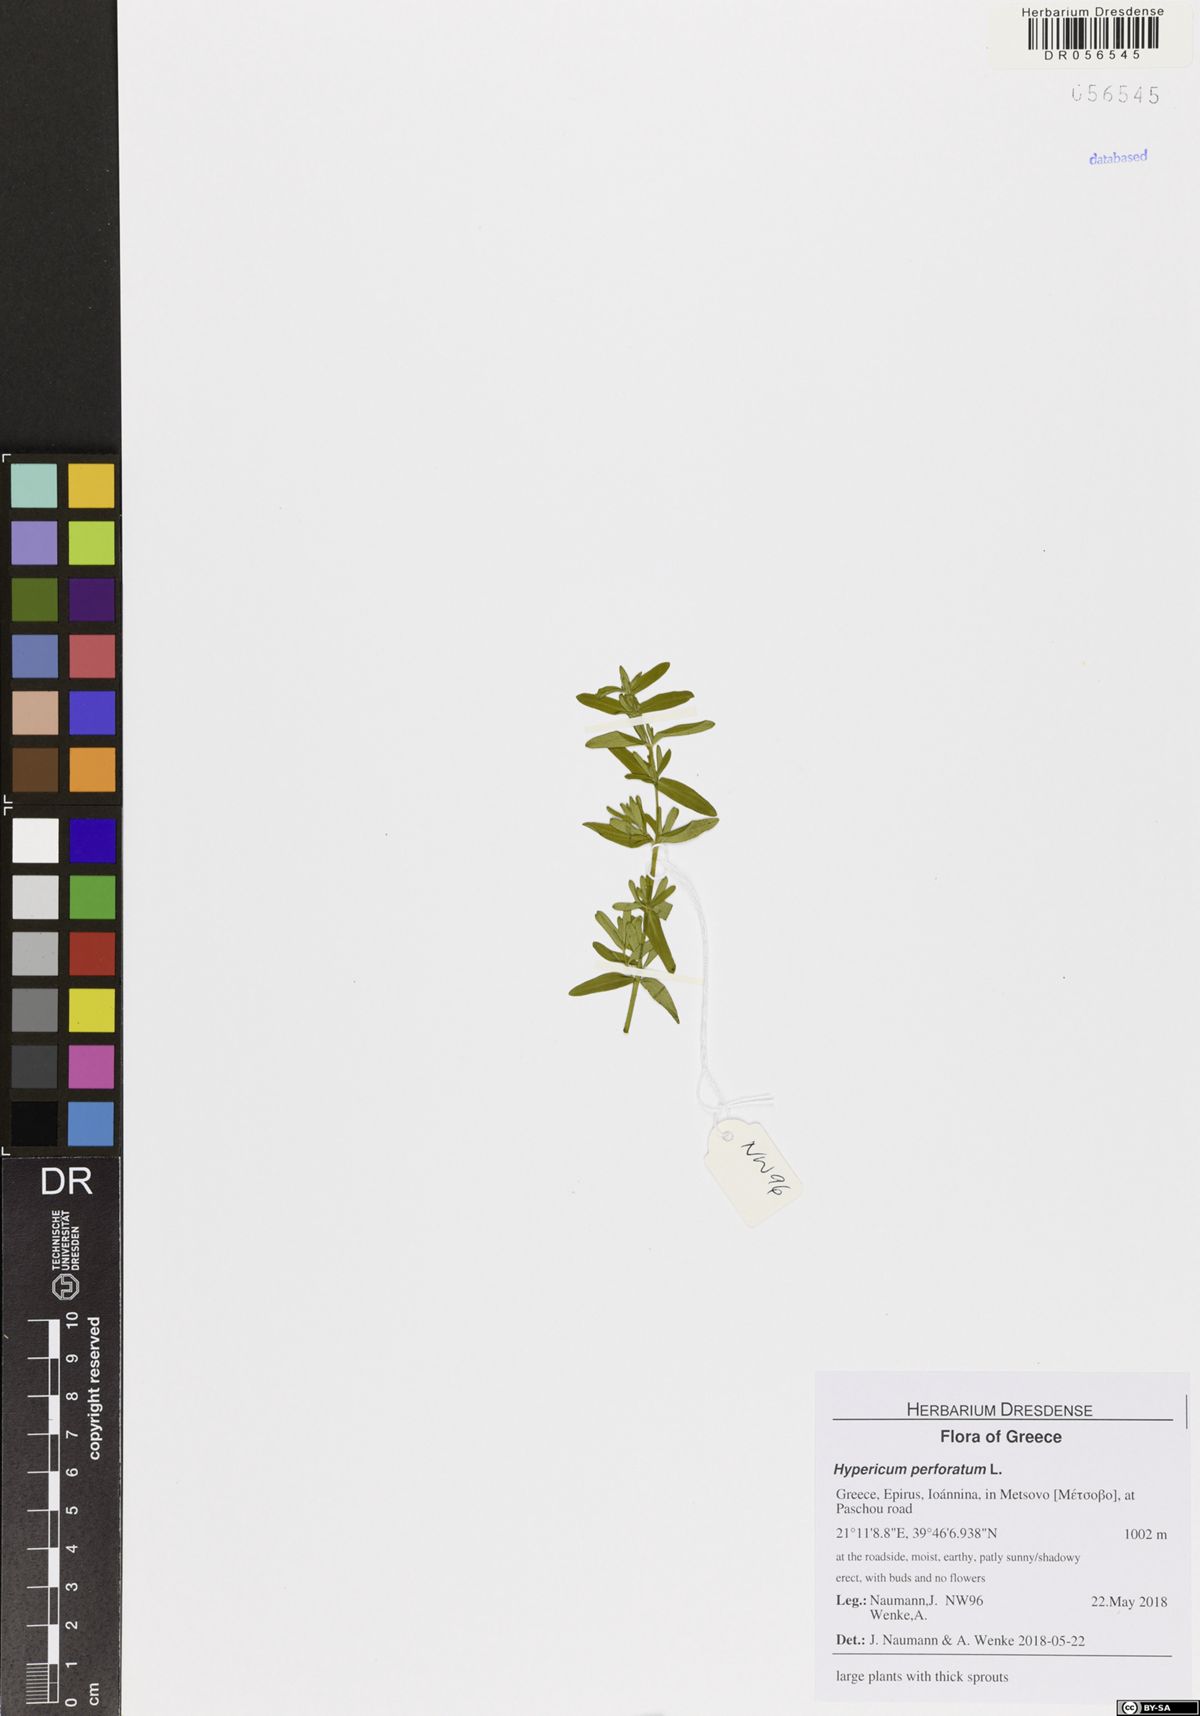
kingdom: Plantae
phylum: Tracheophyta
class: Magnoliopsida
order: Malpighiales
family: Hypericaceae
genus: Hypericum
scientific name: Hypericum perforatum
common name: Common st. johnswort
